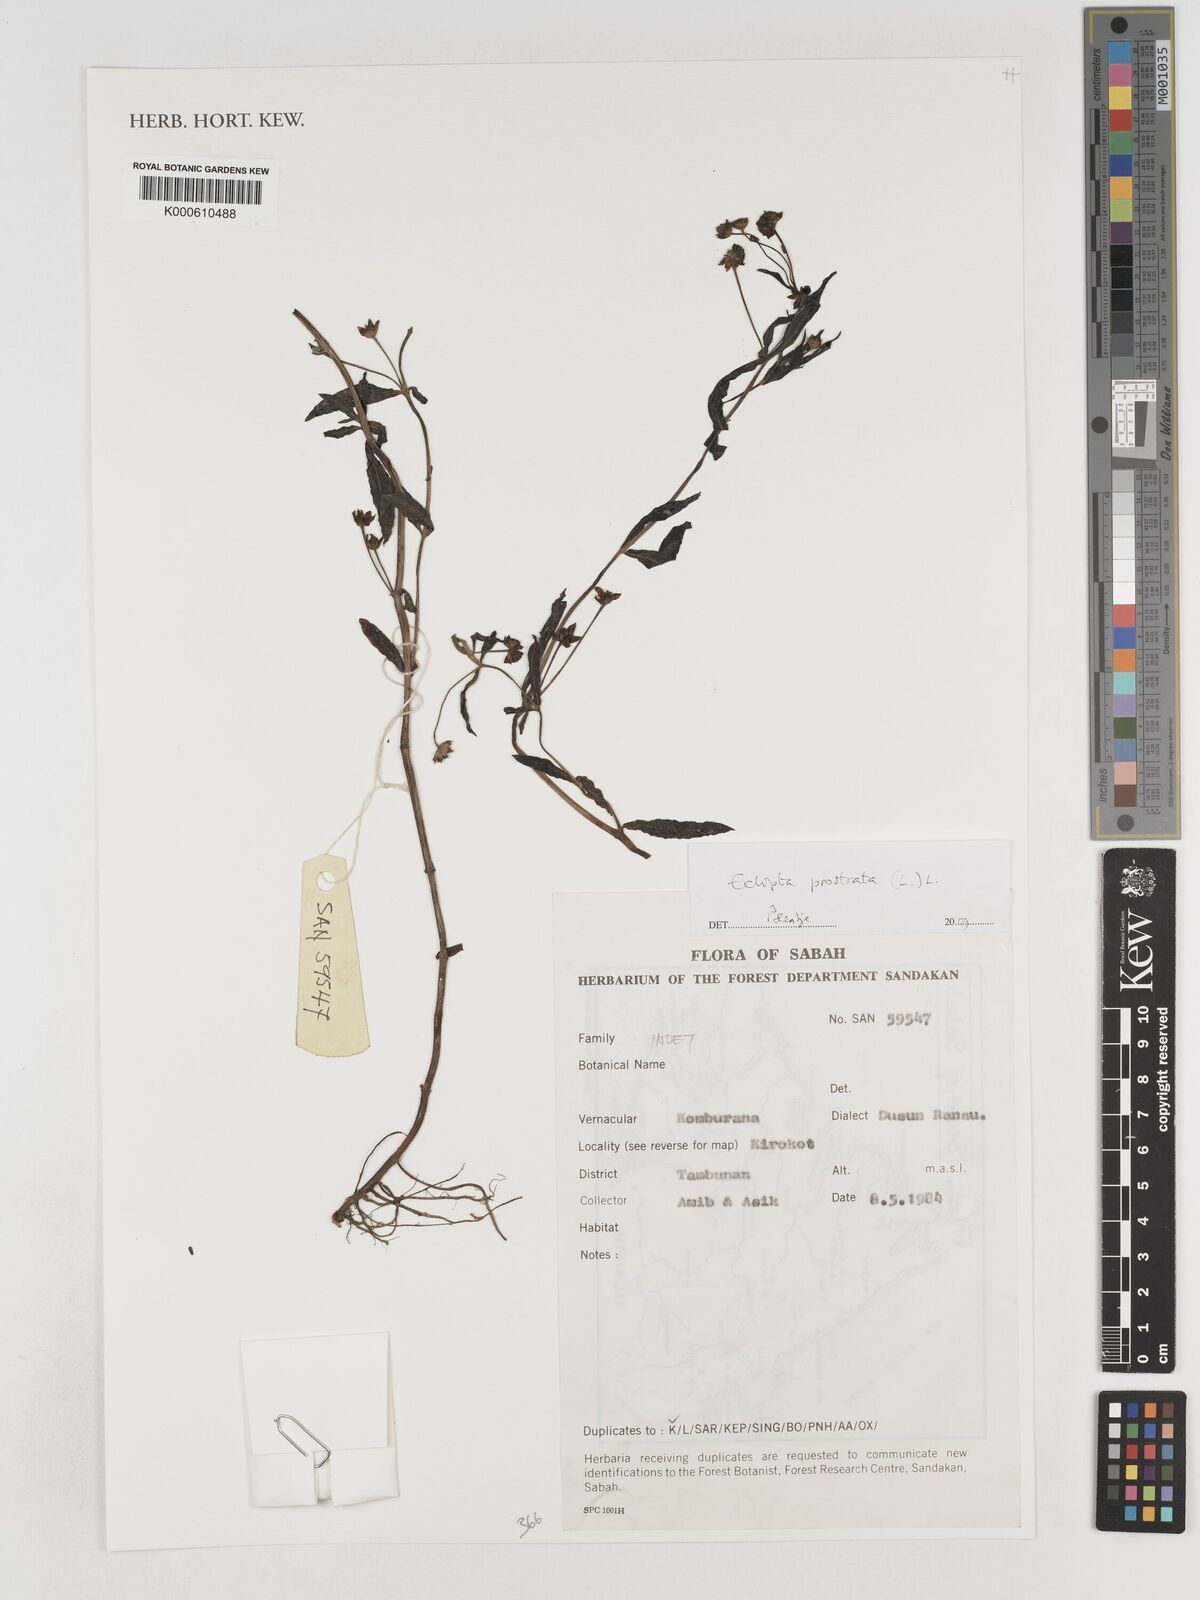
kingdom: Plantae
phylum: Tracheophyta
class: Magnoliopsida
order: Asterales
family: Asteraceae
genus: Eclipta
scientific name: Eclipta prostrata
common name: False daisy
